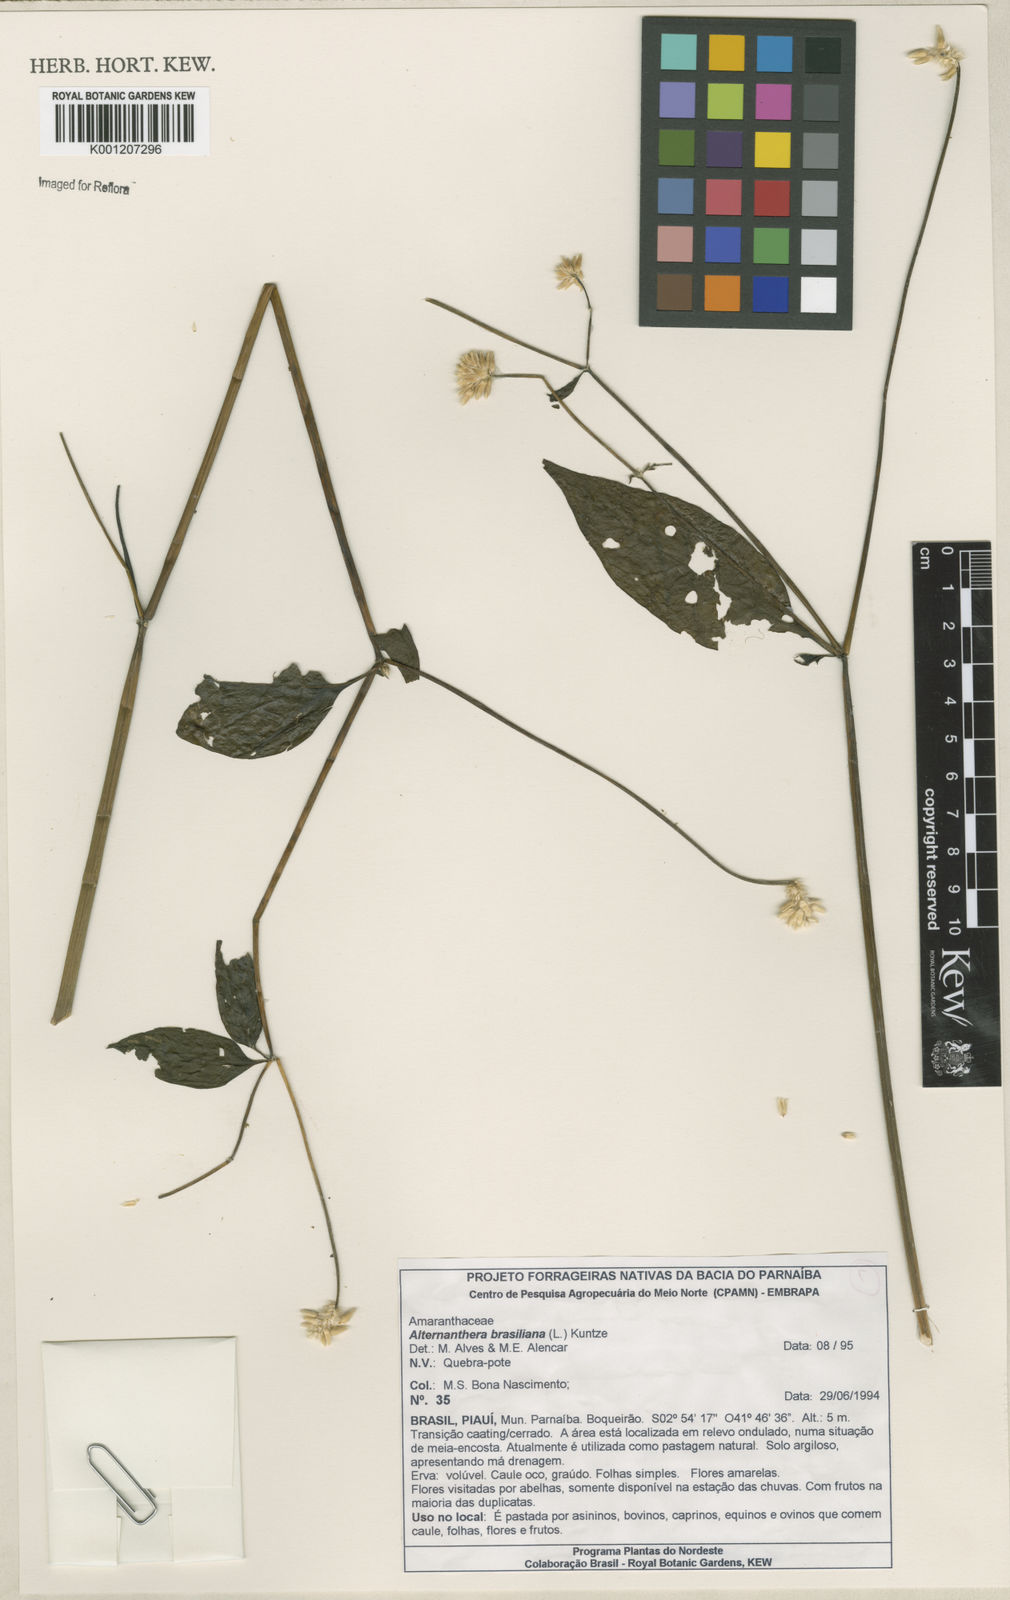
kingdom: Plantae
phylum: Tracheophyta
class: Magnoliopsida
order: Caryophyllales
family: Amaranthaceae
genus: Alternanthera
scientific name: Alternanthera brasiliana
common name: Brazilian joyweed
